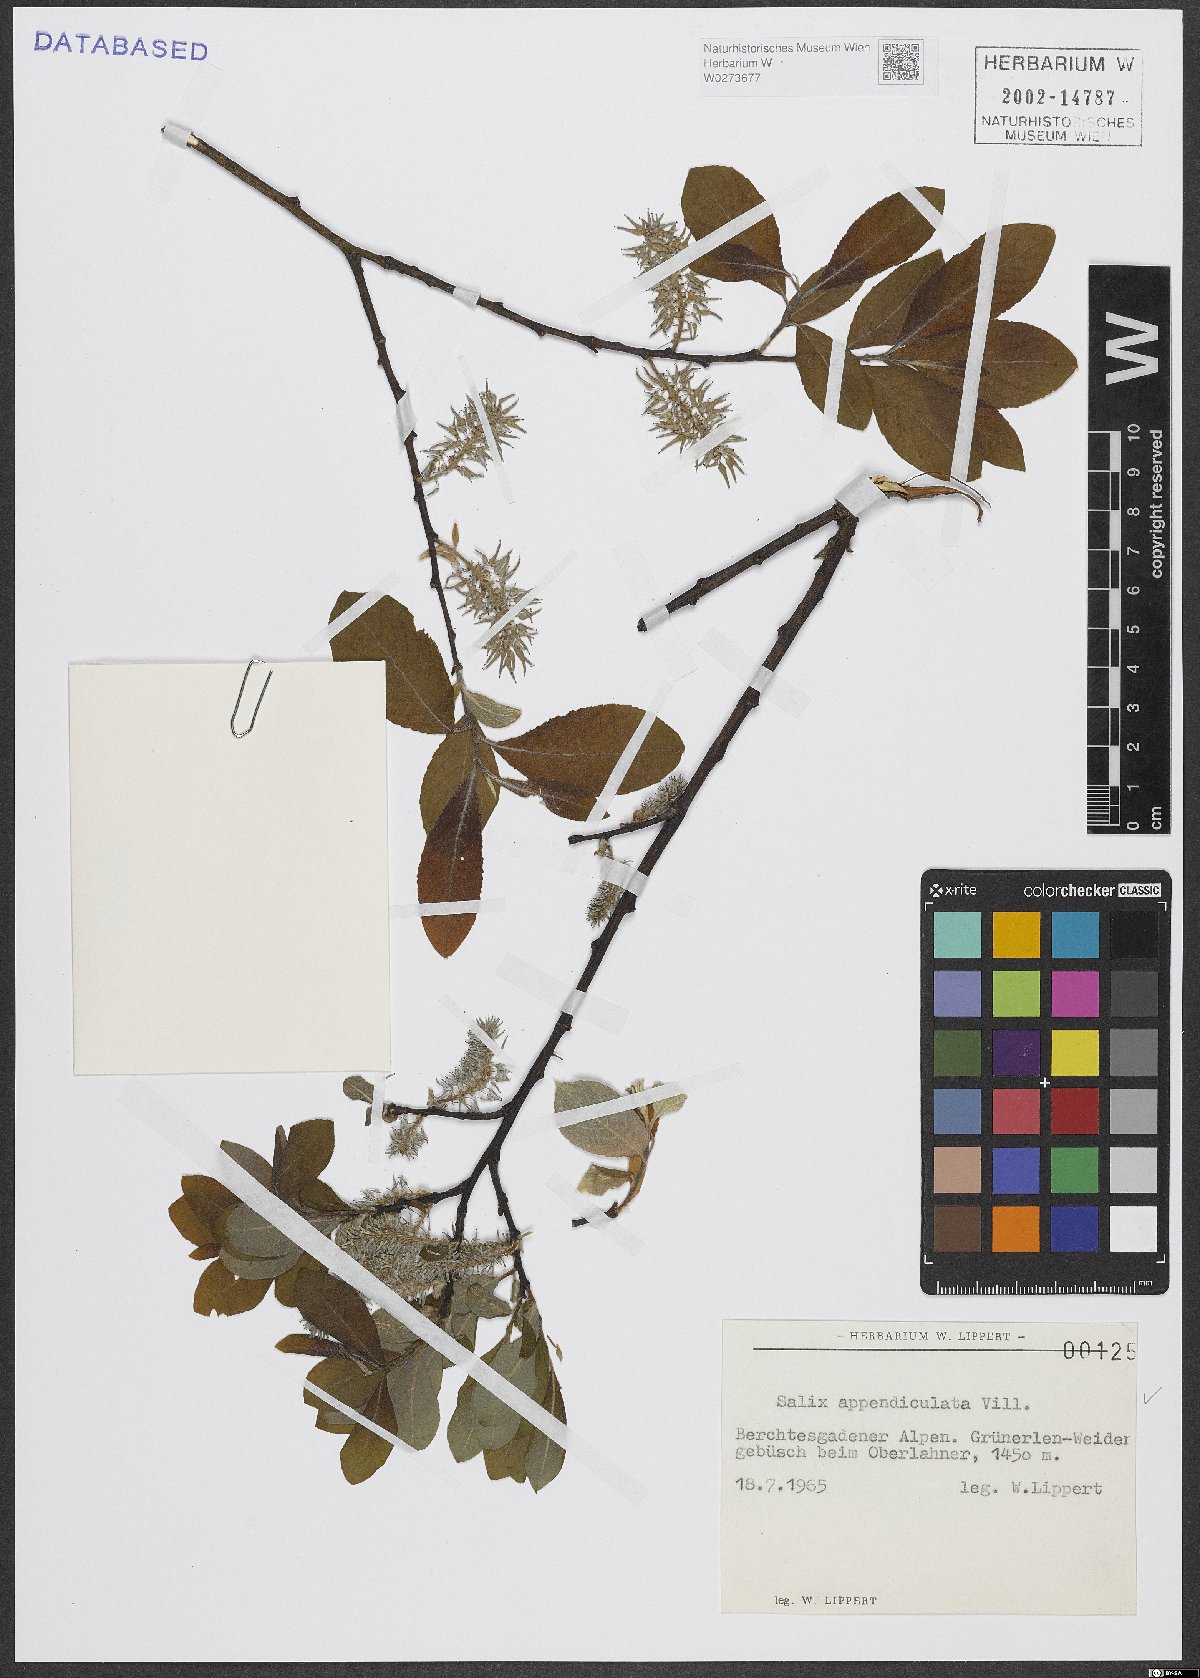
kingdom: Plantae
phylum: Tracheophyta
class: Magnoliopsida
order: Malpighiales
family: Salicaceae
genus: Salix
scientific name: Salix appendiculata
